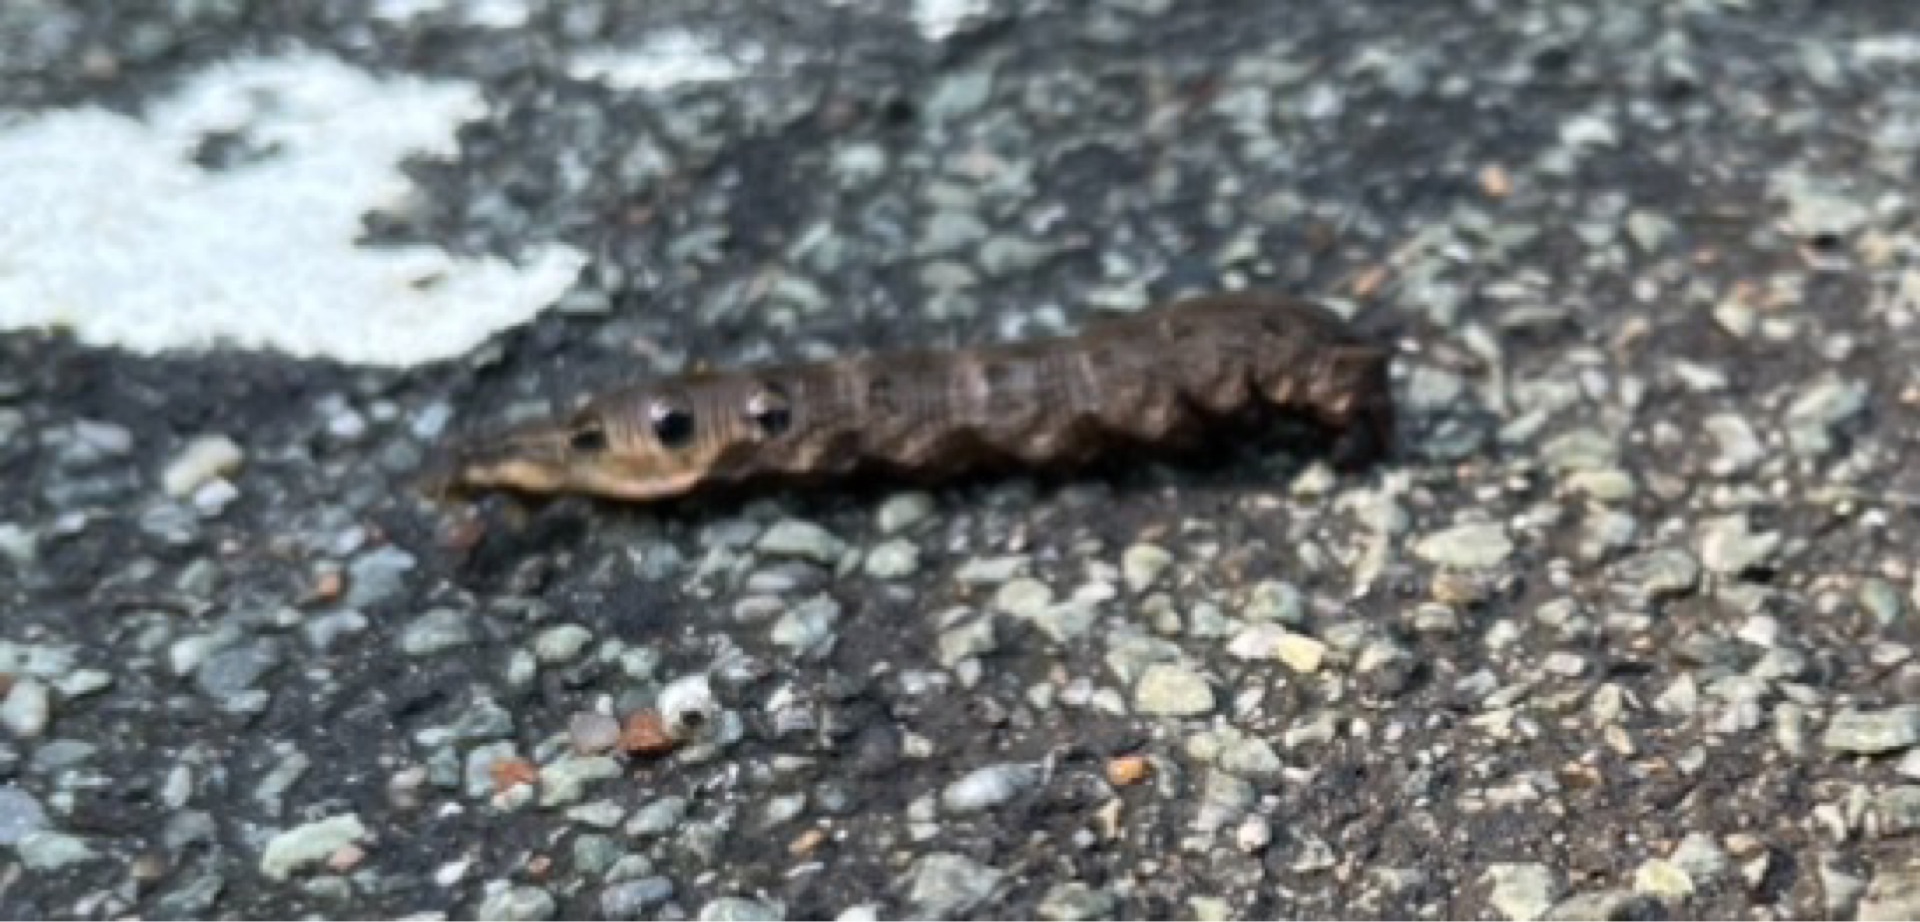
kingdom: Animalia
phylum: Arthropoda
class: Insecta
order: Lepidoptera
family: Sphingidae
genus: Deilephila
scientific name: Deilephila elpenor
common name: Dueurtsværmer
